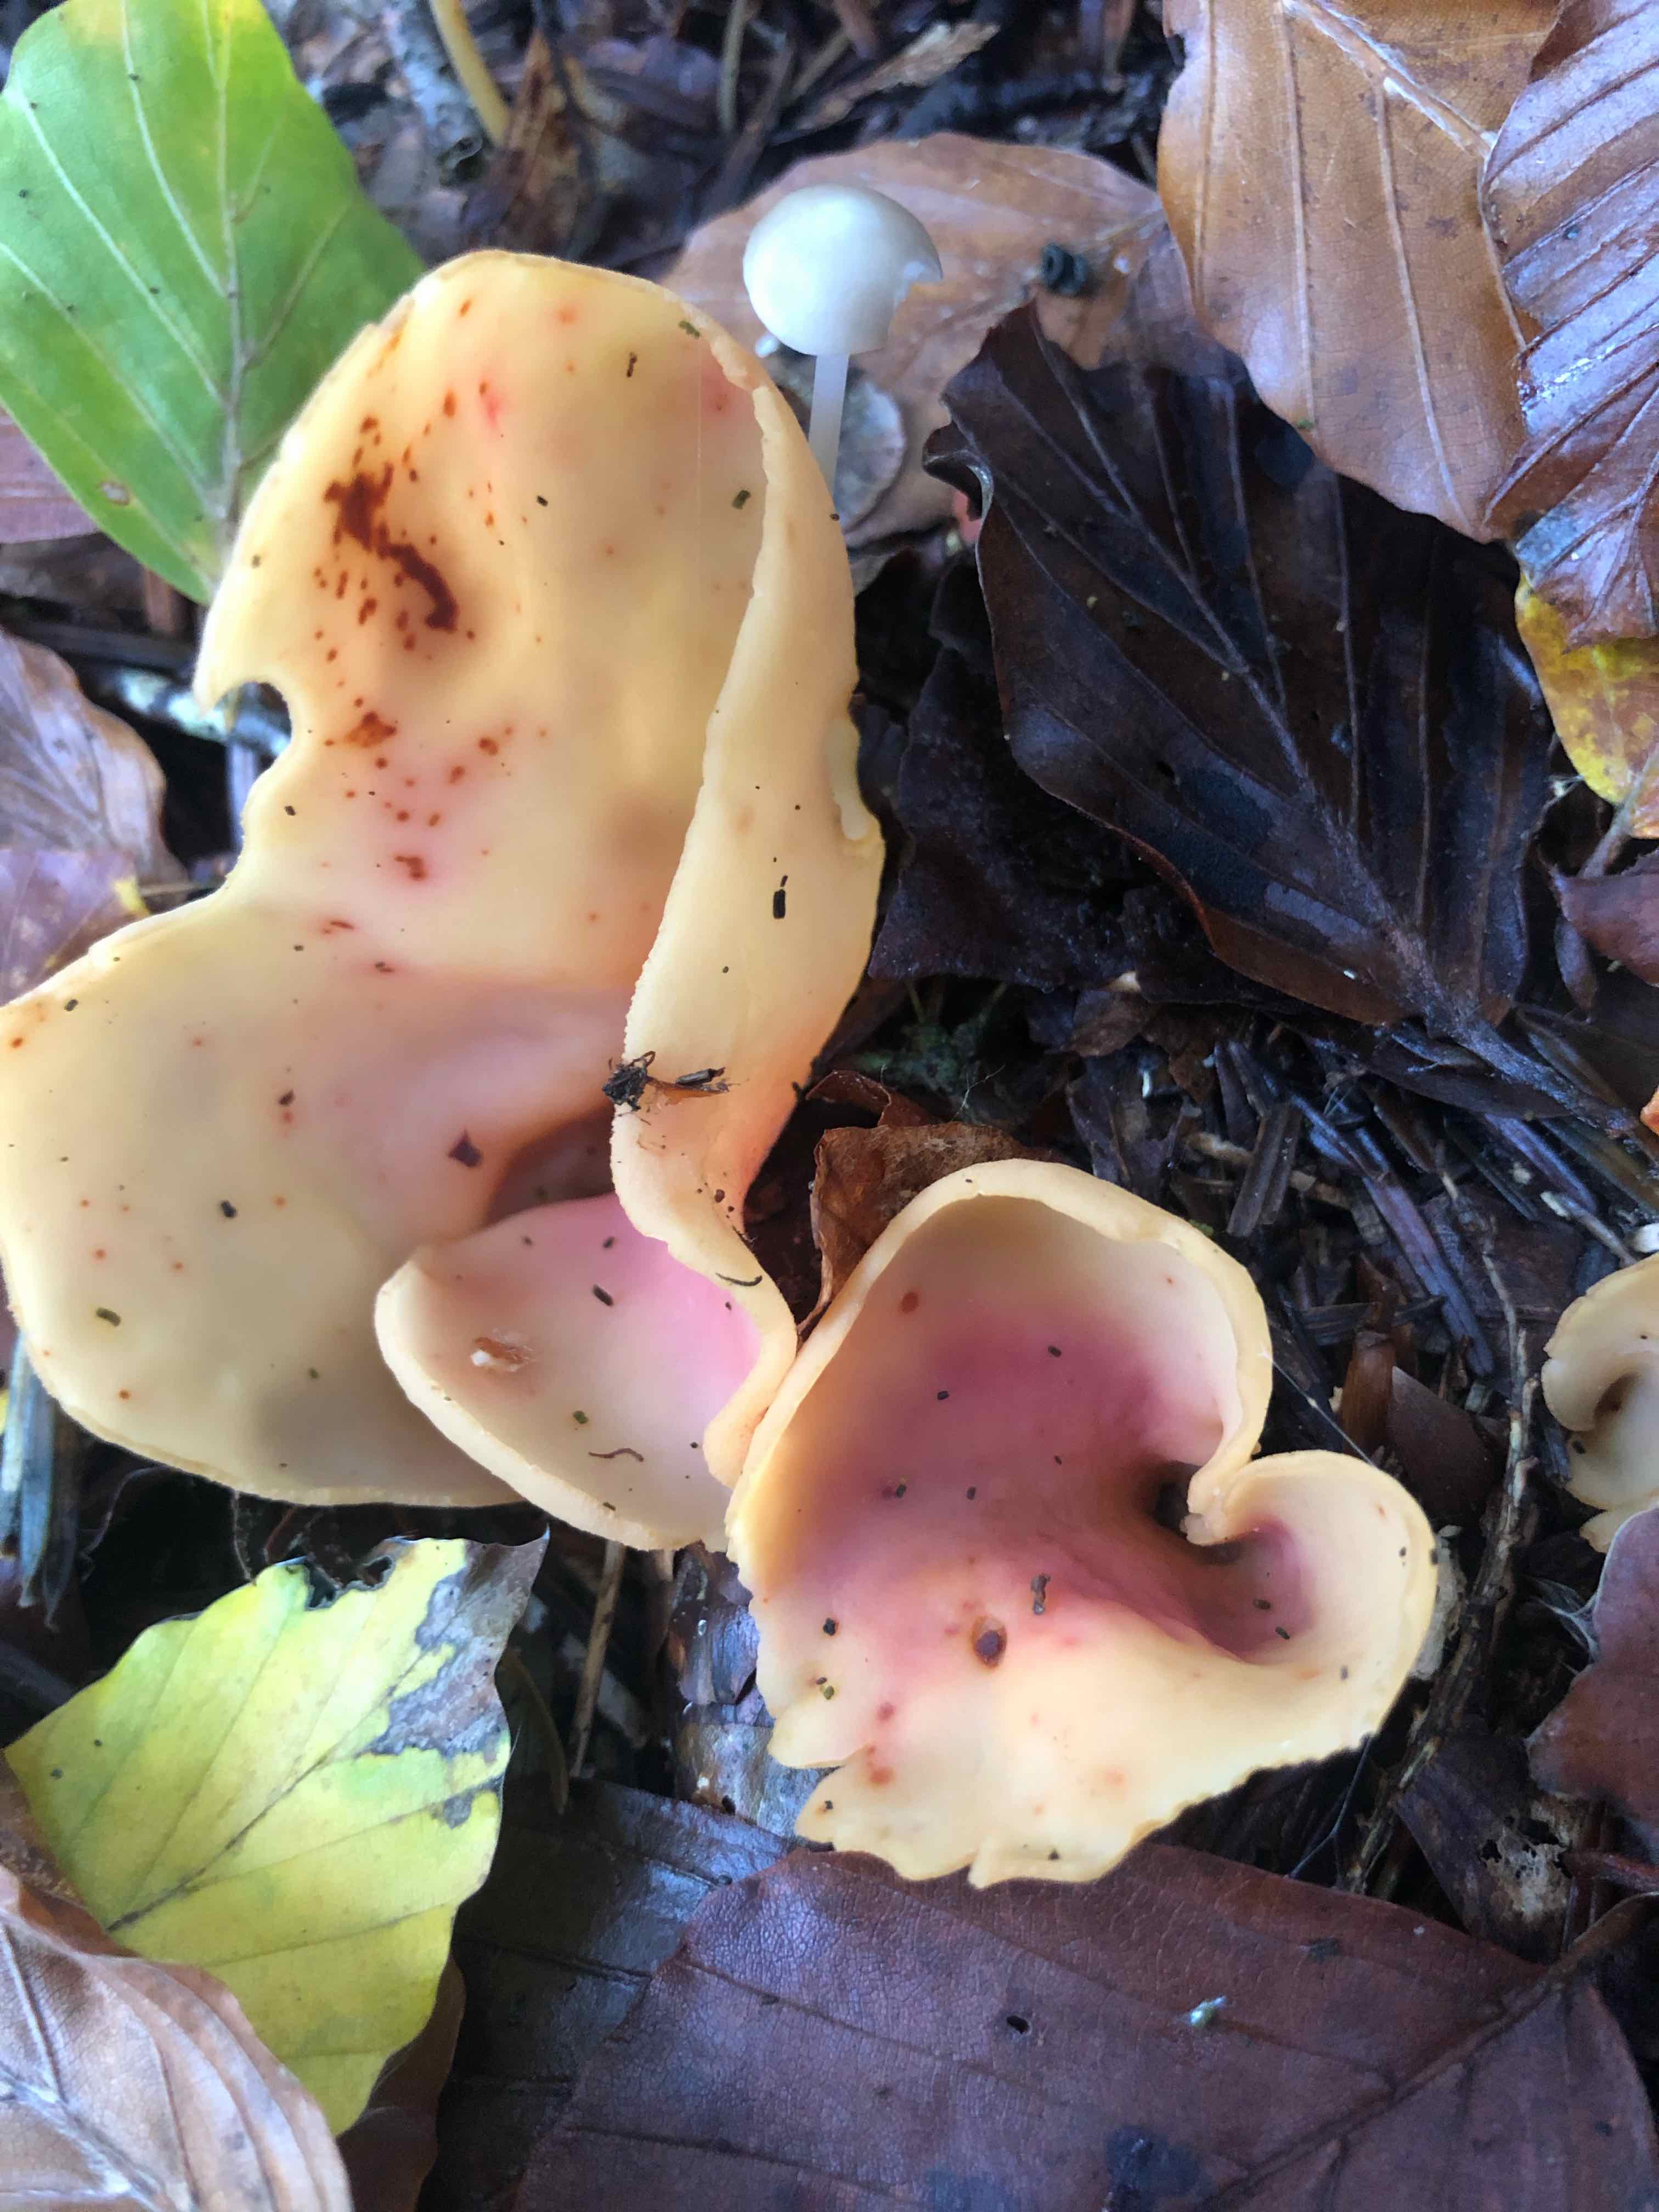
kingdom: Fungi
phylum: Ascomycota
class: Pezizomycetes
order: Pezizales
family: Otideaceae
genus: Otidea
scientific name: Otidea onotica
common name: æsel-ørebæger
